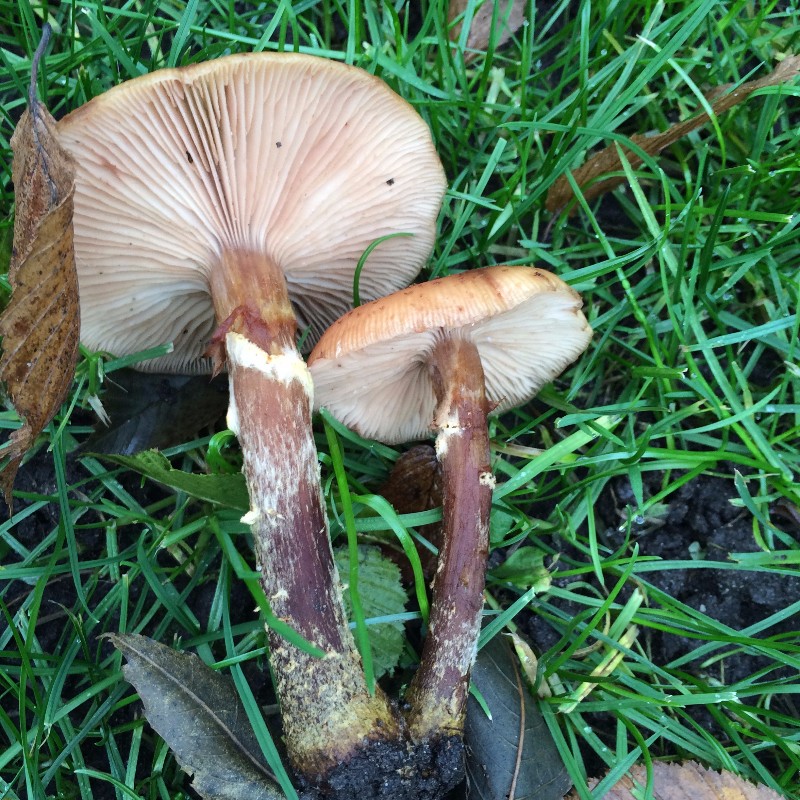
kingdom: Fungi
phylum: Basidiomycota
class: Agaricomycetes
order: Agaricales
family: Physalacriaceae
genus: Armillaria
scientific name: Armillaria ostoyae
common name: mørk honningsvamp
